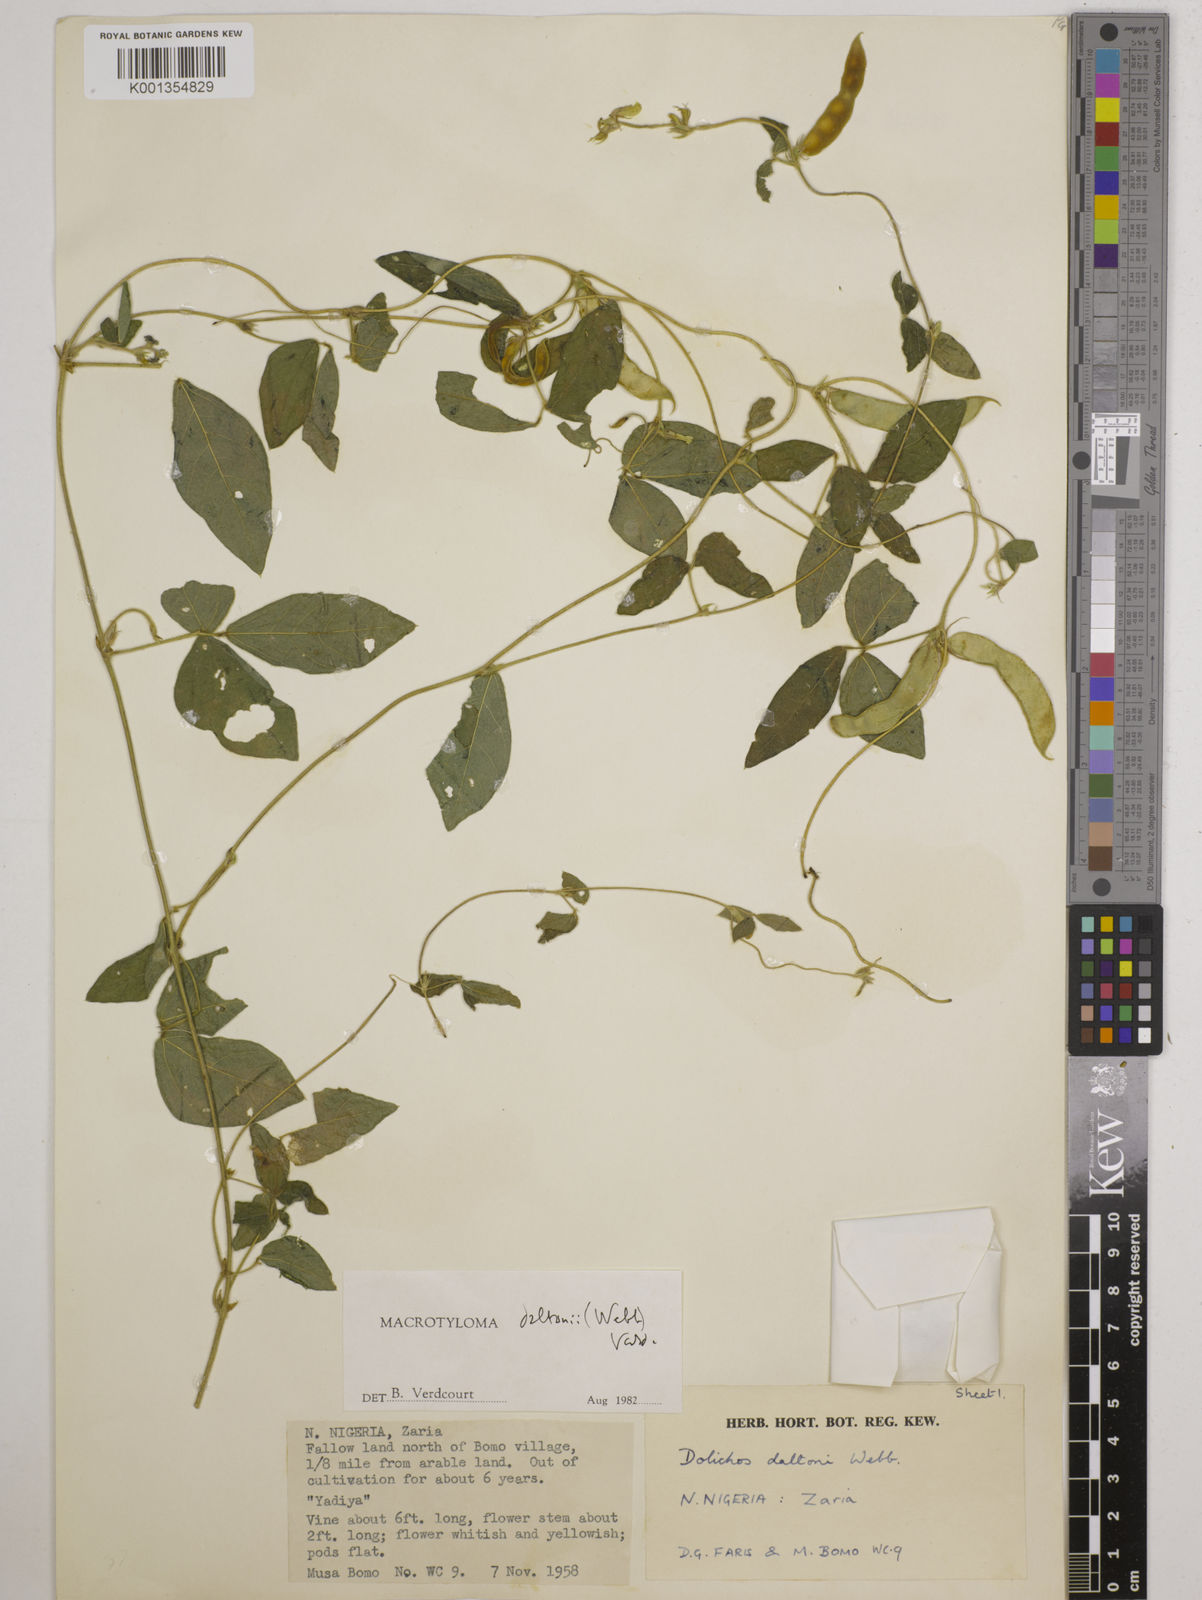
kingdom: Plantae
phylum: Tracheophyta
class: Magnoliopsida
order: Fabales
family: Fabaceae
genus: Macrotyloma
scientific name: Macrotyloma daltonii
